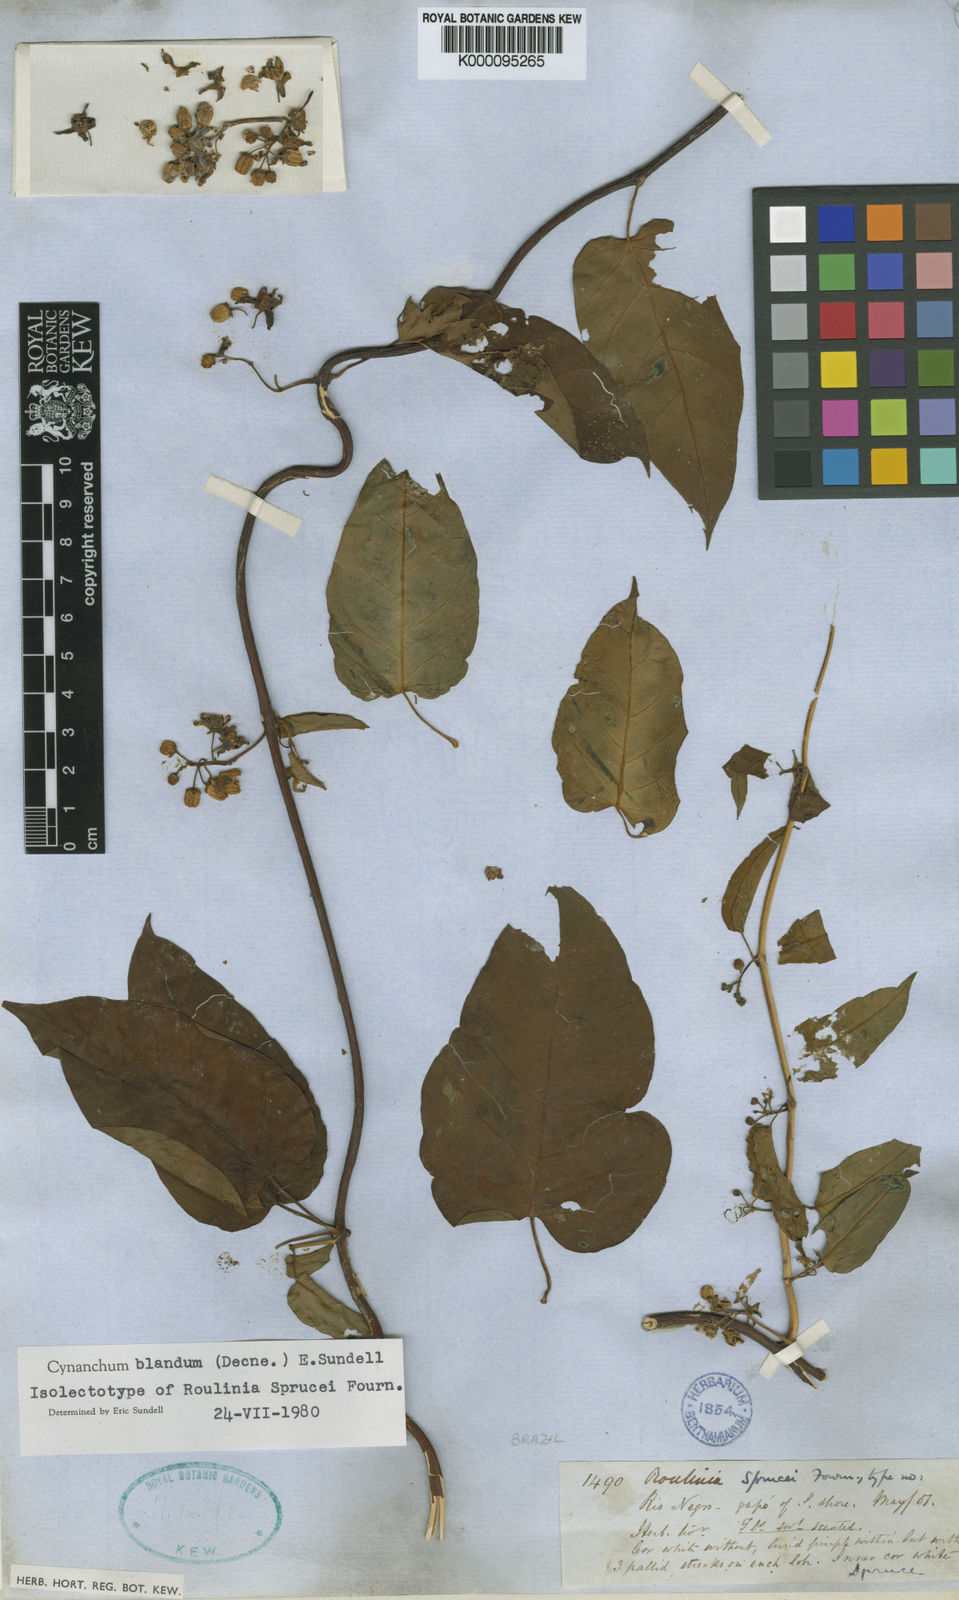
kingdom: Plantae
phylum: Tracheophyta
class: Magnoliopsida
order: Gentianales
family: Apocynaceae
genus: Cynanchum
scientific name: Cynanchum blandum
